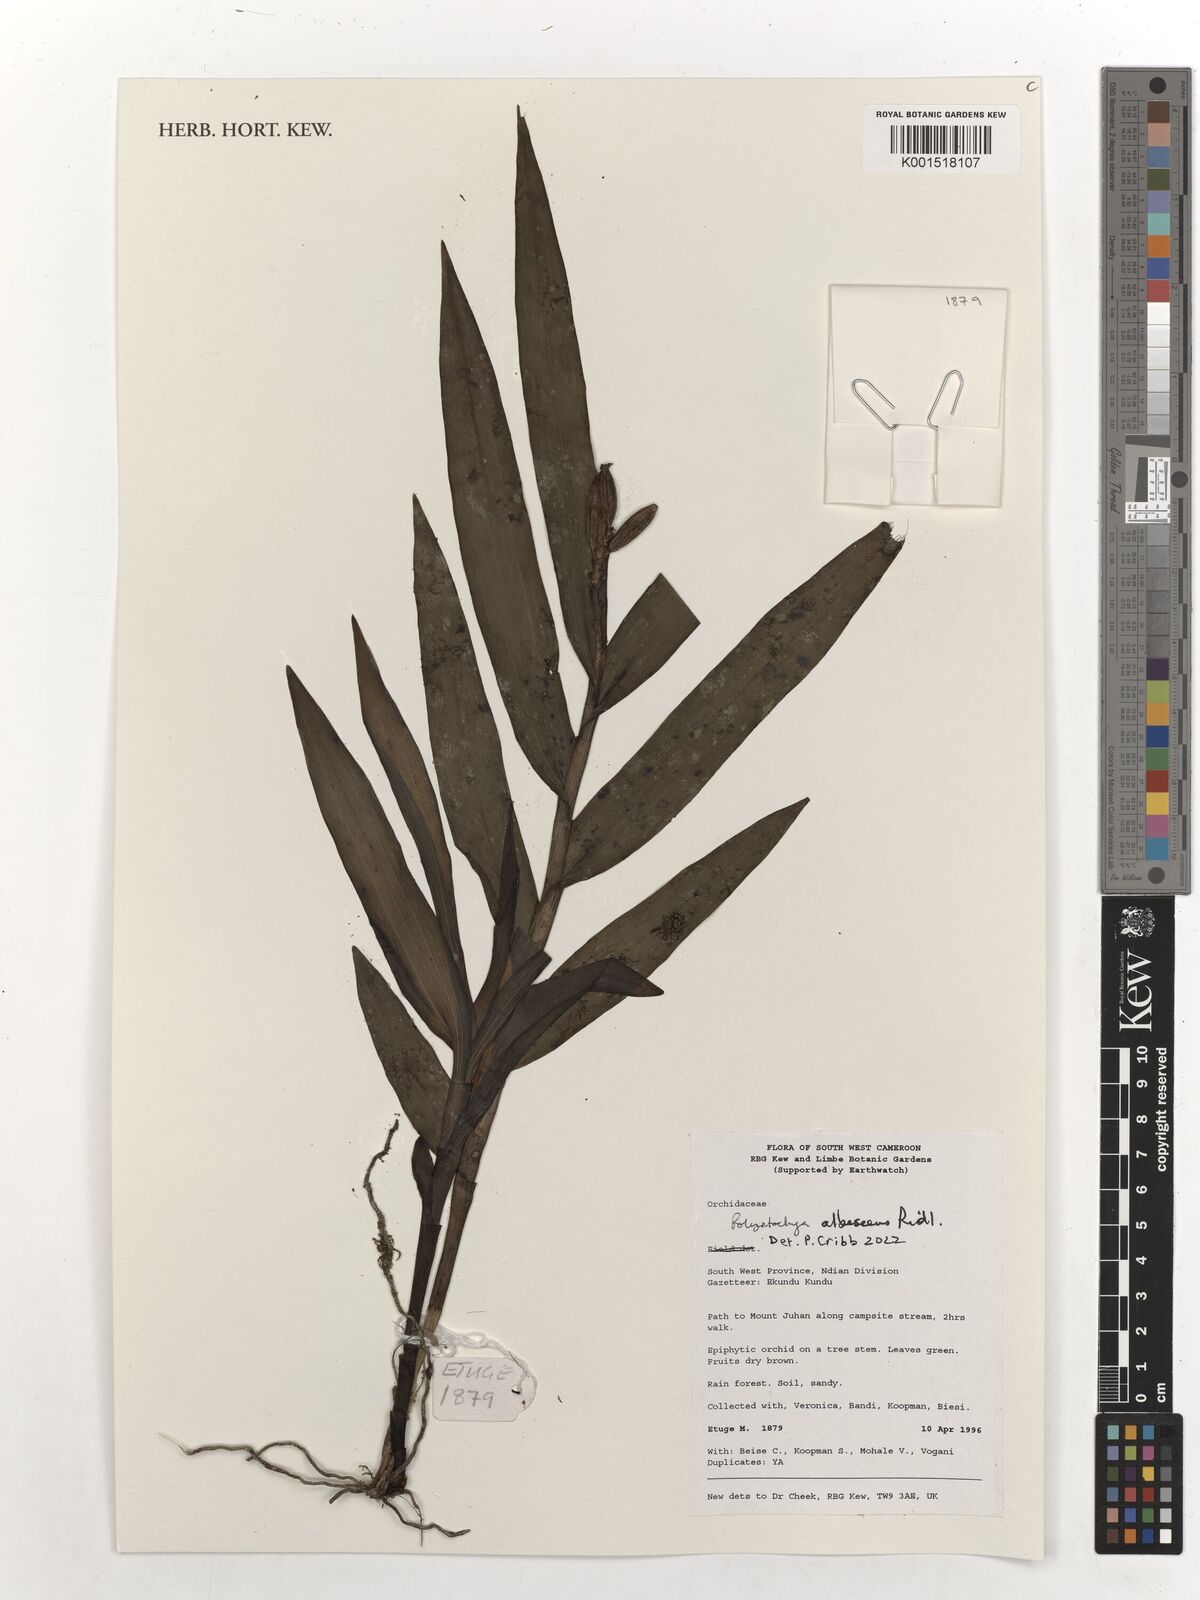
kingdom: Plantae
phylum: Tracheophyta
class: Liliopsida
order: Asparagales
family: Orchidaceae
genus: Polystachya
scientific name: Polystachya albescens
